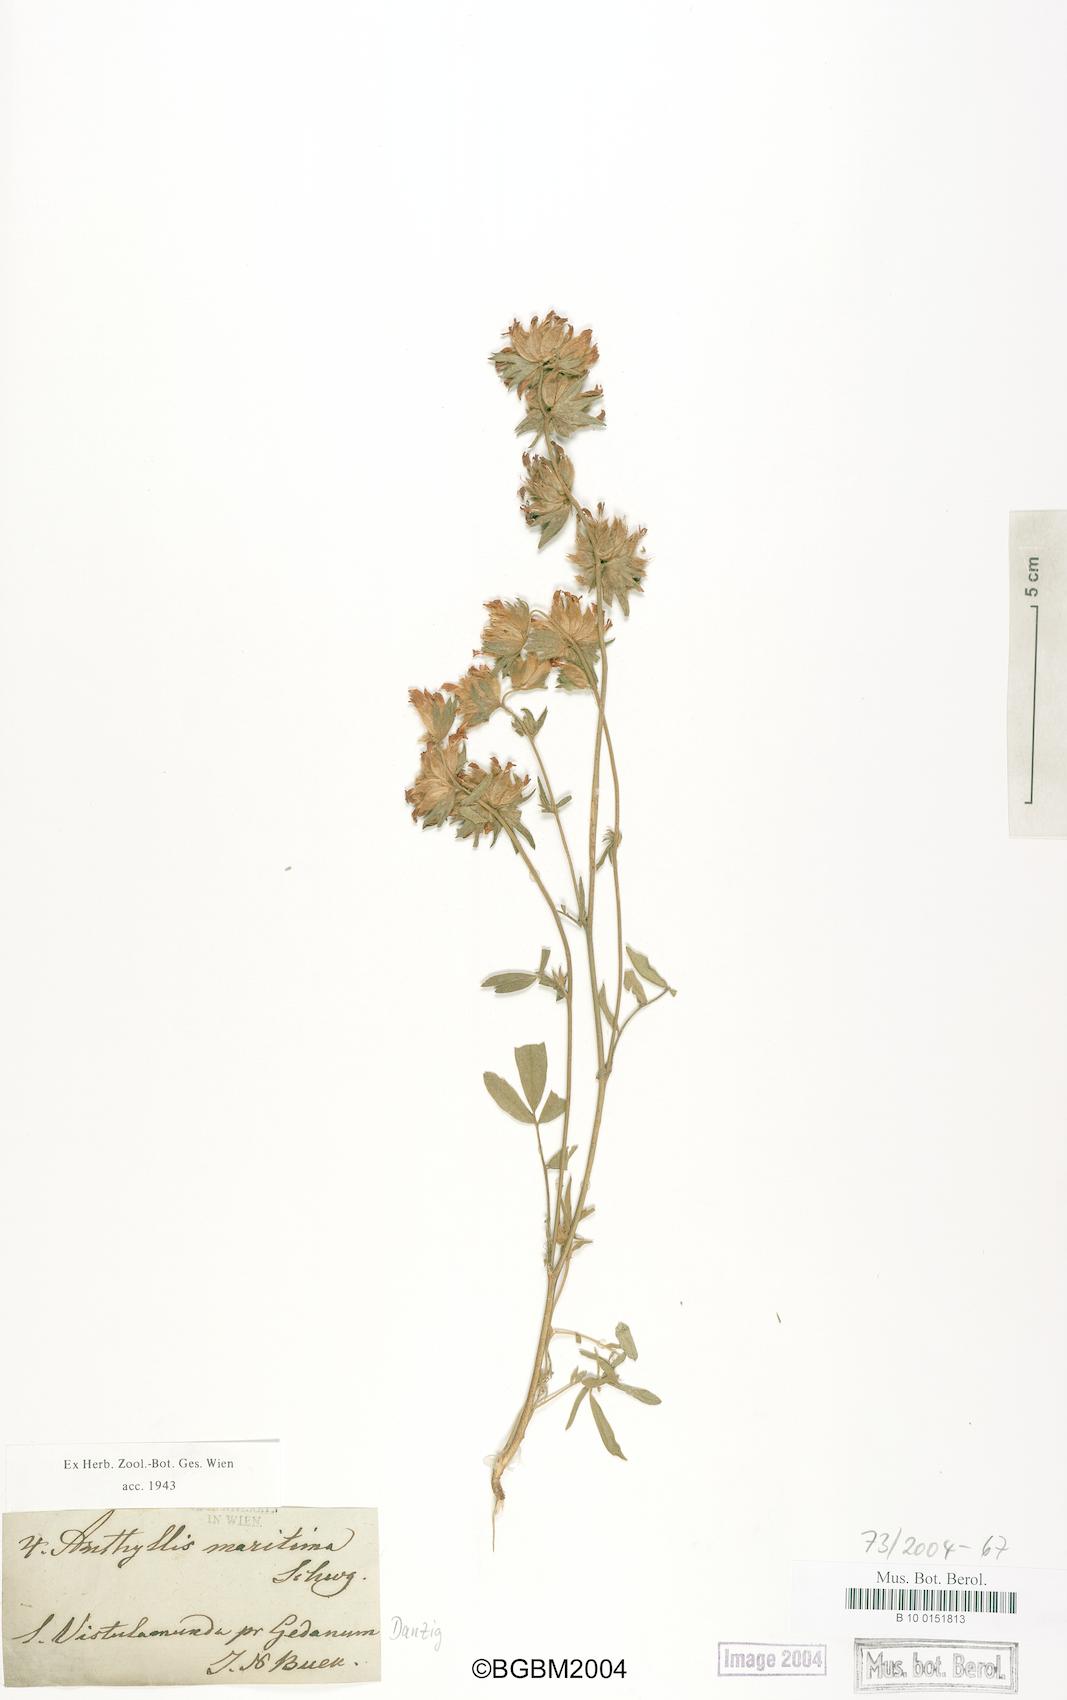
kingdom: Plantae
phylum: Tracheophyta
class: Magnoliopsida
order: Fabales
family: Fabaceae
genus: Anthyllis
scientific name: Anthyllis vulneraria
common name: Kidney vetch
